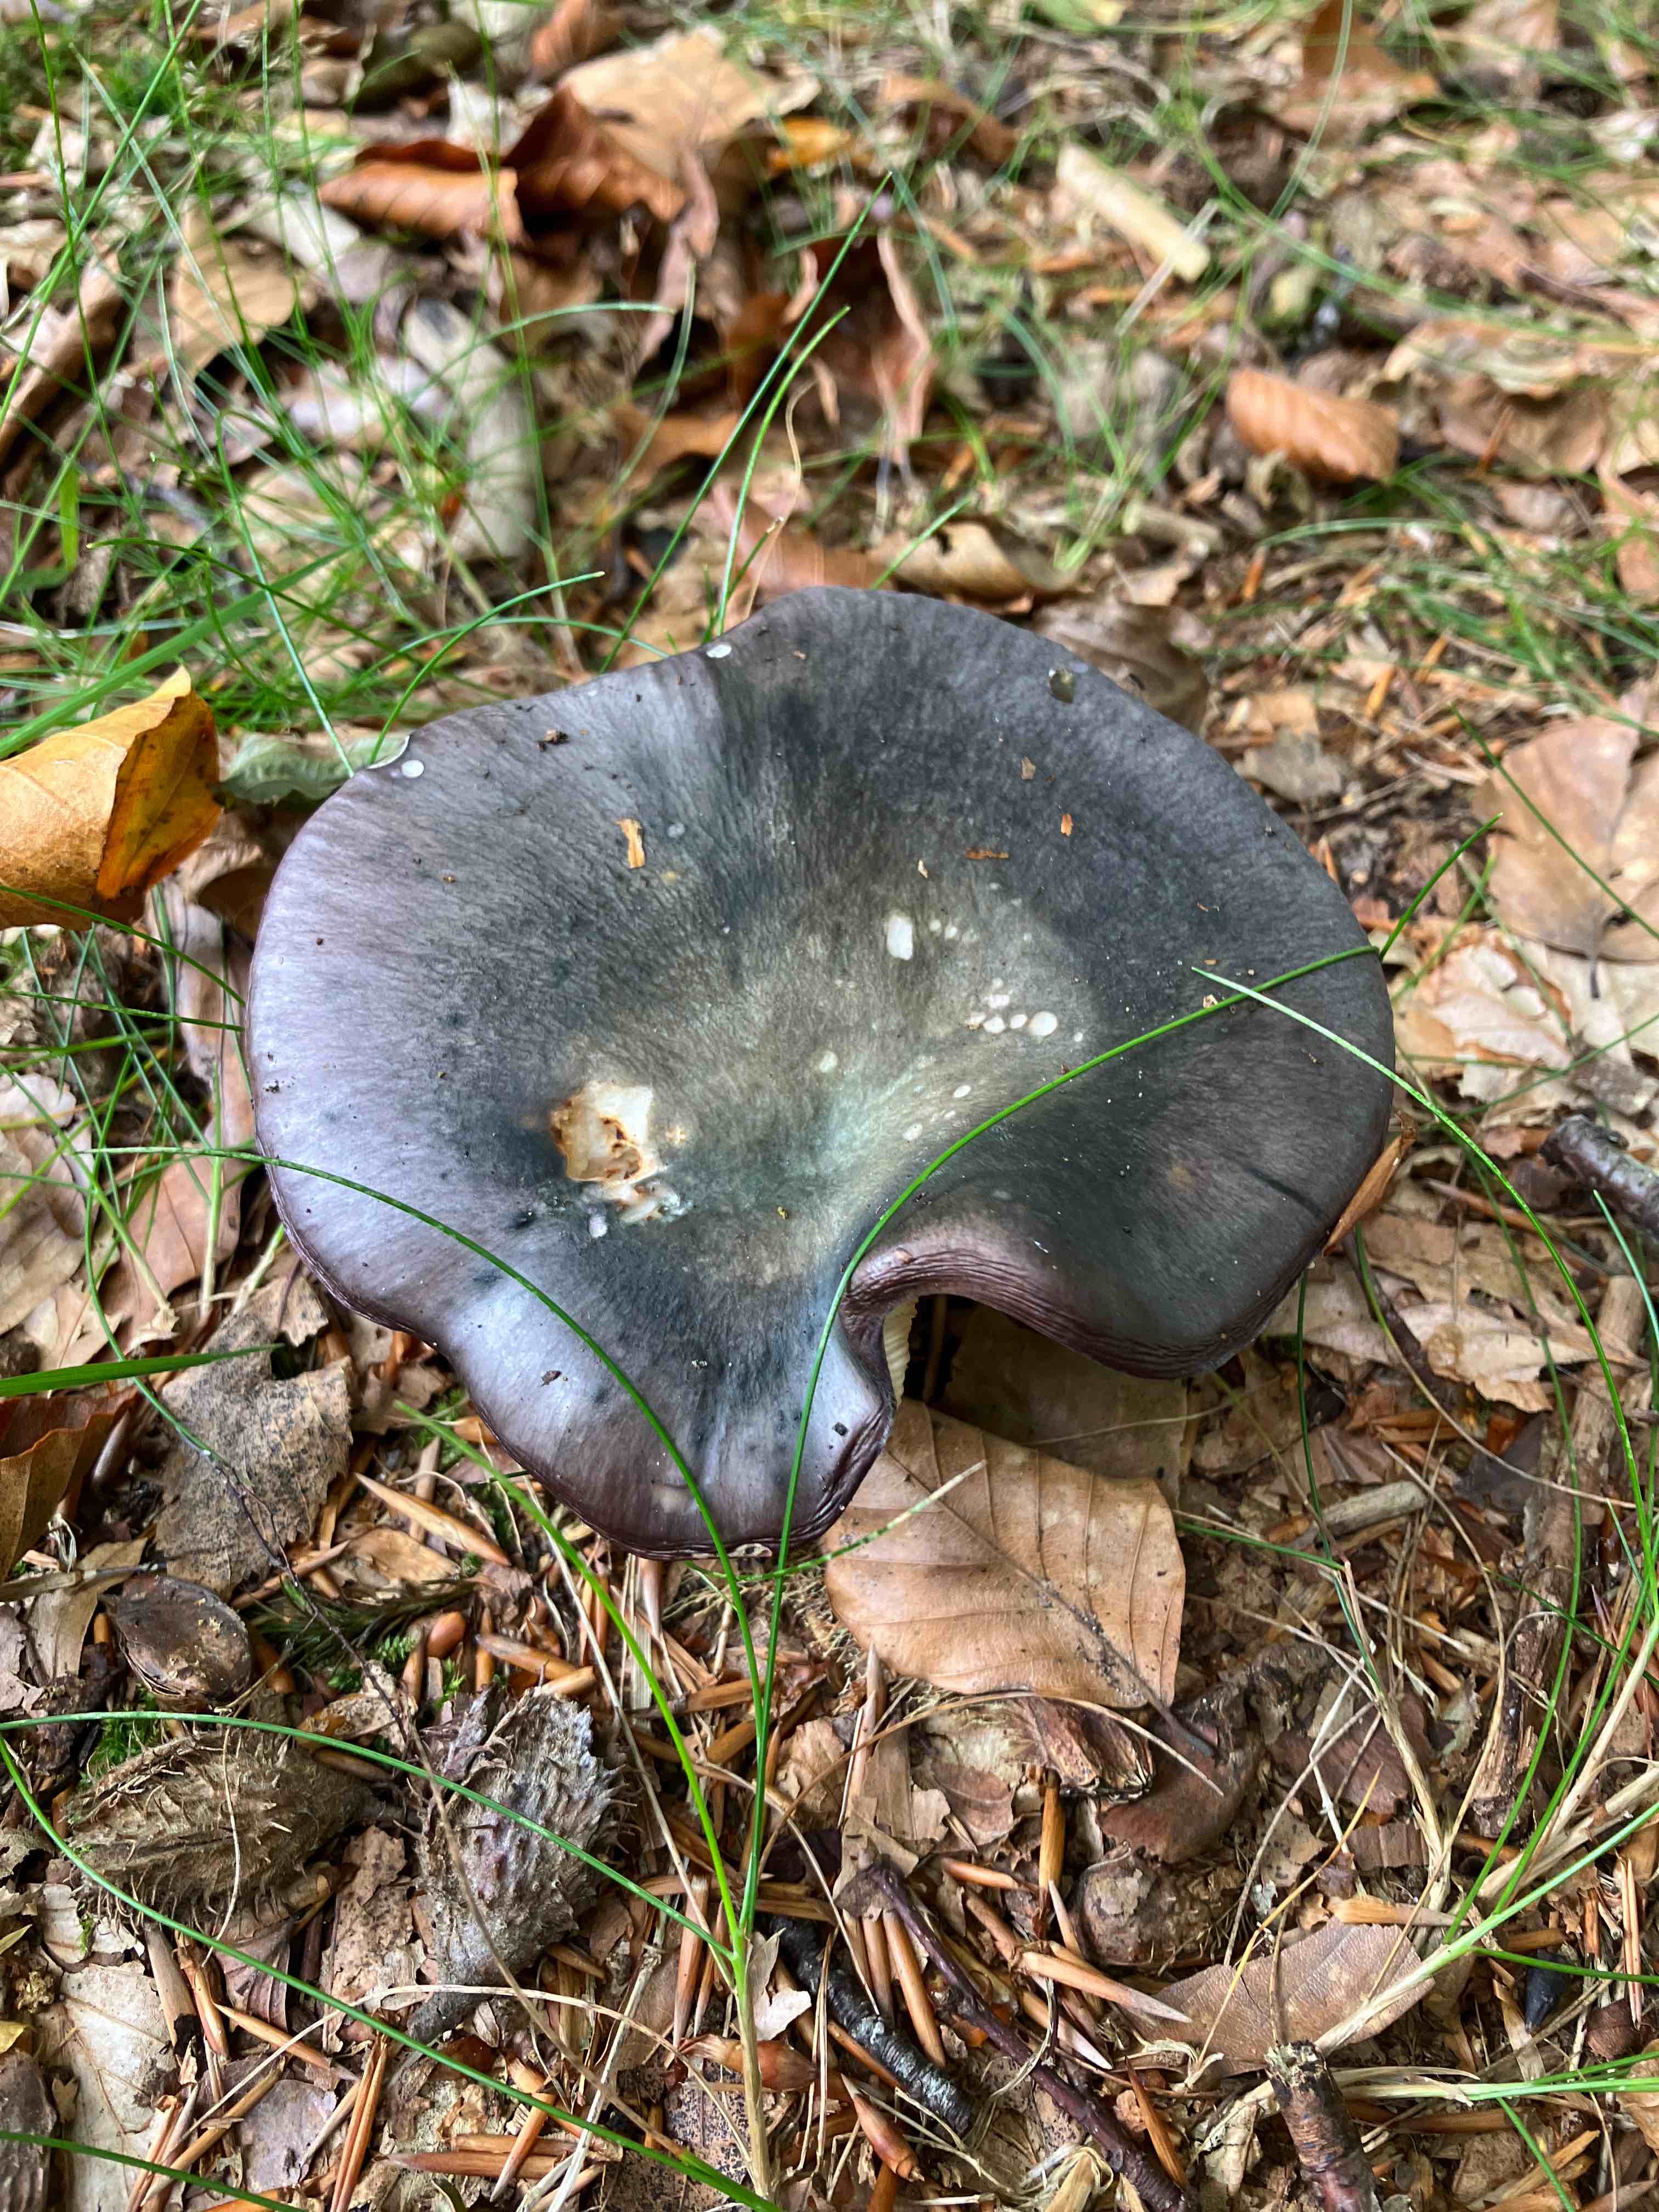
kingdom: Fungi
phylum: Basidiomycota
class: Agaricomycetes
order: Russulales
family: Russulaceae
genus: Russula
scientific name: Russula
